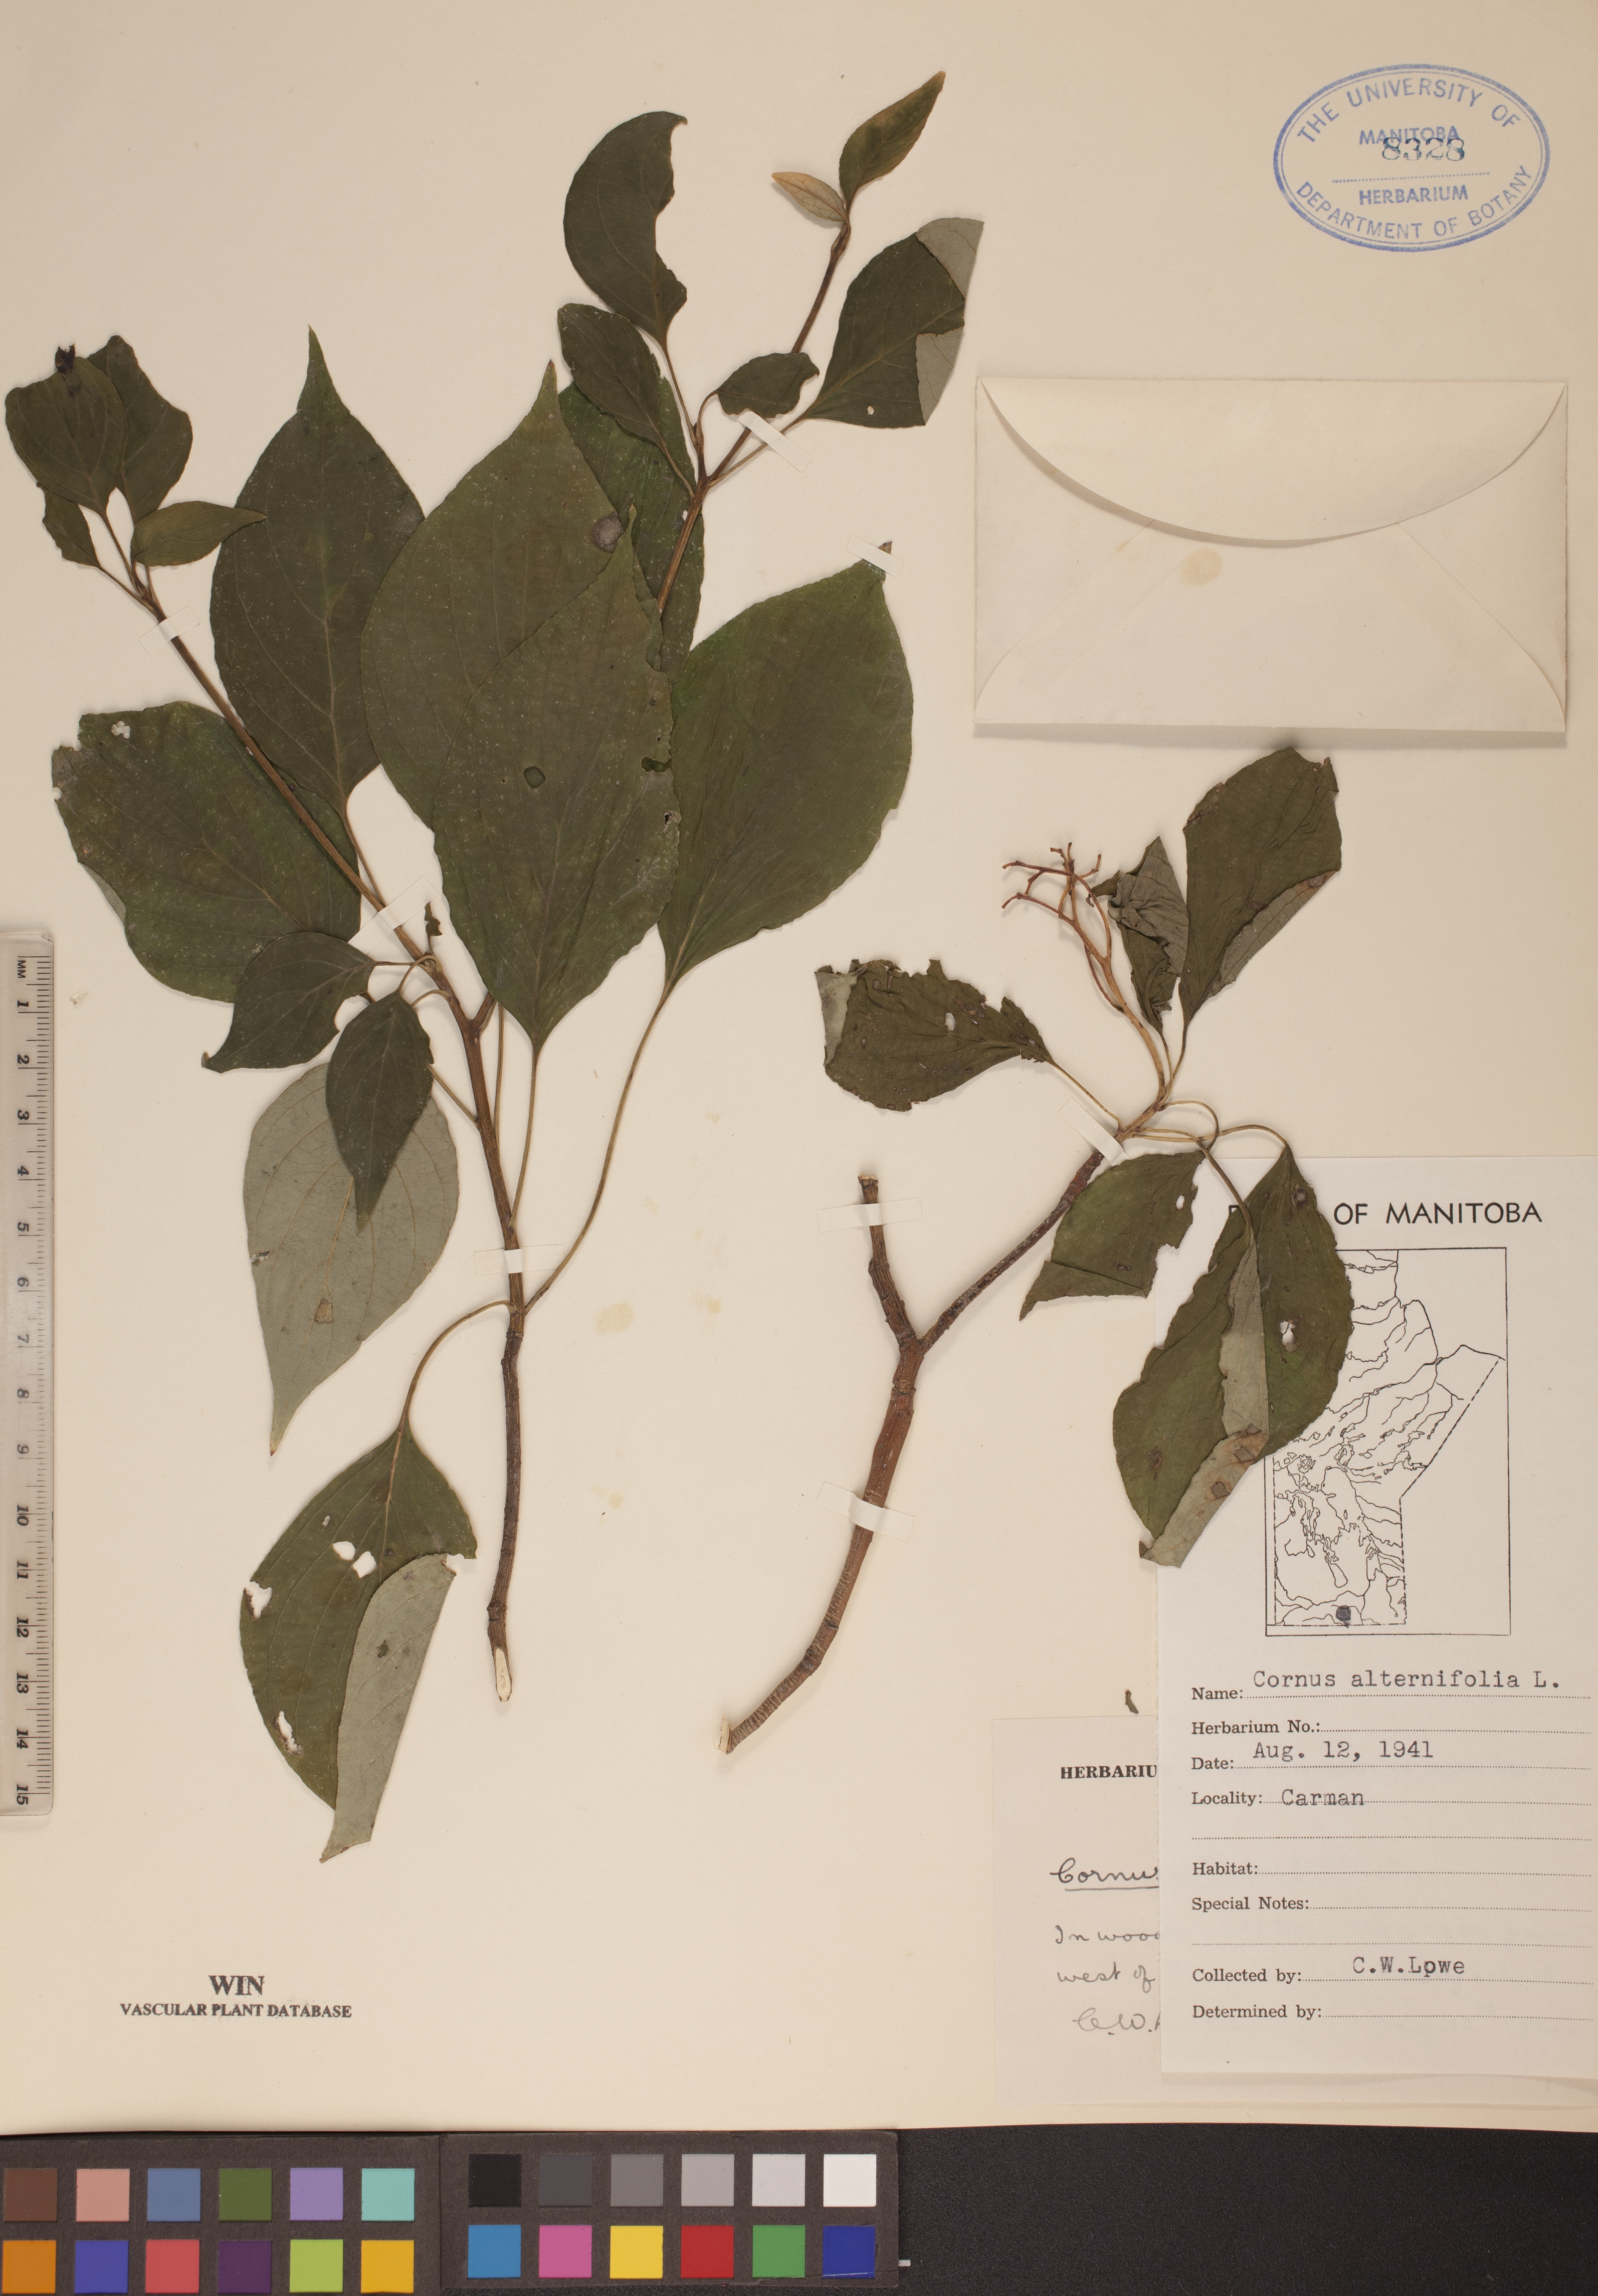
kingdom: Plantae
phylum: Tracheophyta
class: Magnoliopsida
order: Cornales
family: Cornaceae
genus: Cornus
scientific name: Cornus alternifolia
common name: Pagoda dogwood
